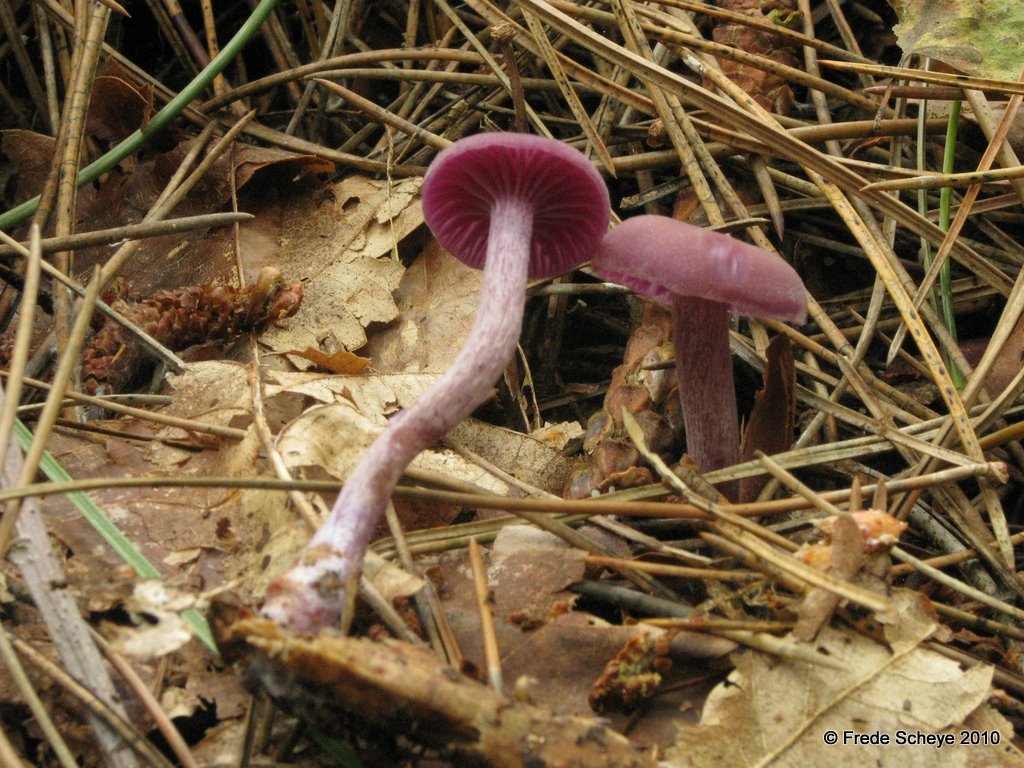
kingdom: Fungi
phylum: Basidiomycota
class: Agaricomycetes
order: Agaricales
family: Hydnangiaceae
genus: Laccaria
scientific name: Laccaria amethystina
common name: violet ametysthat
